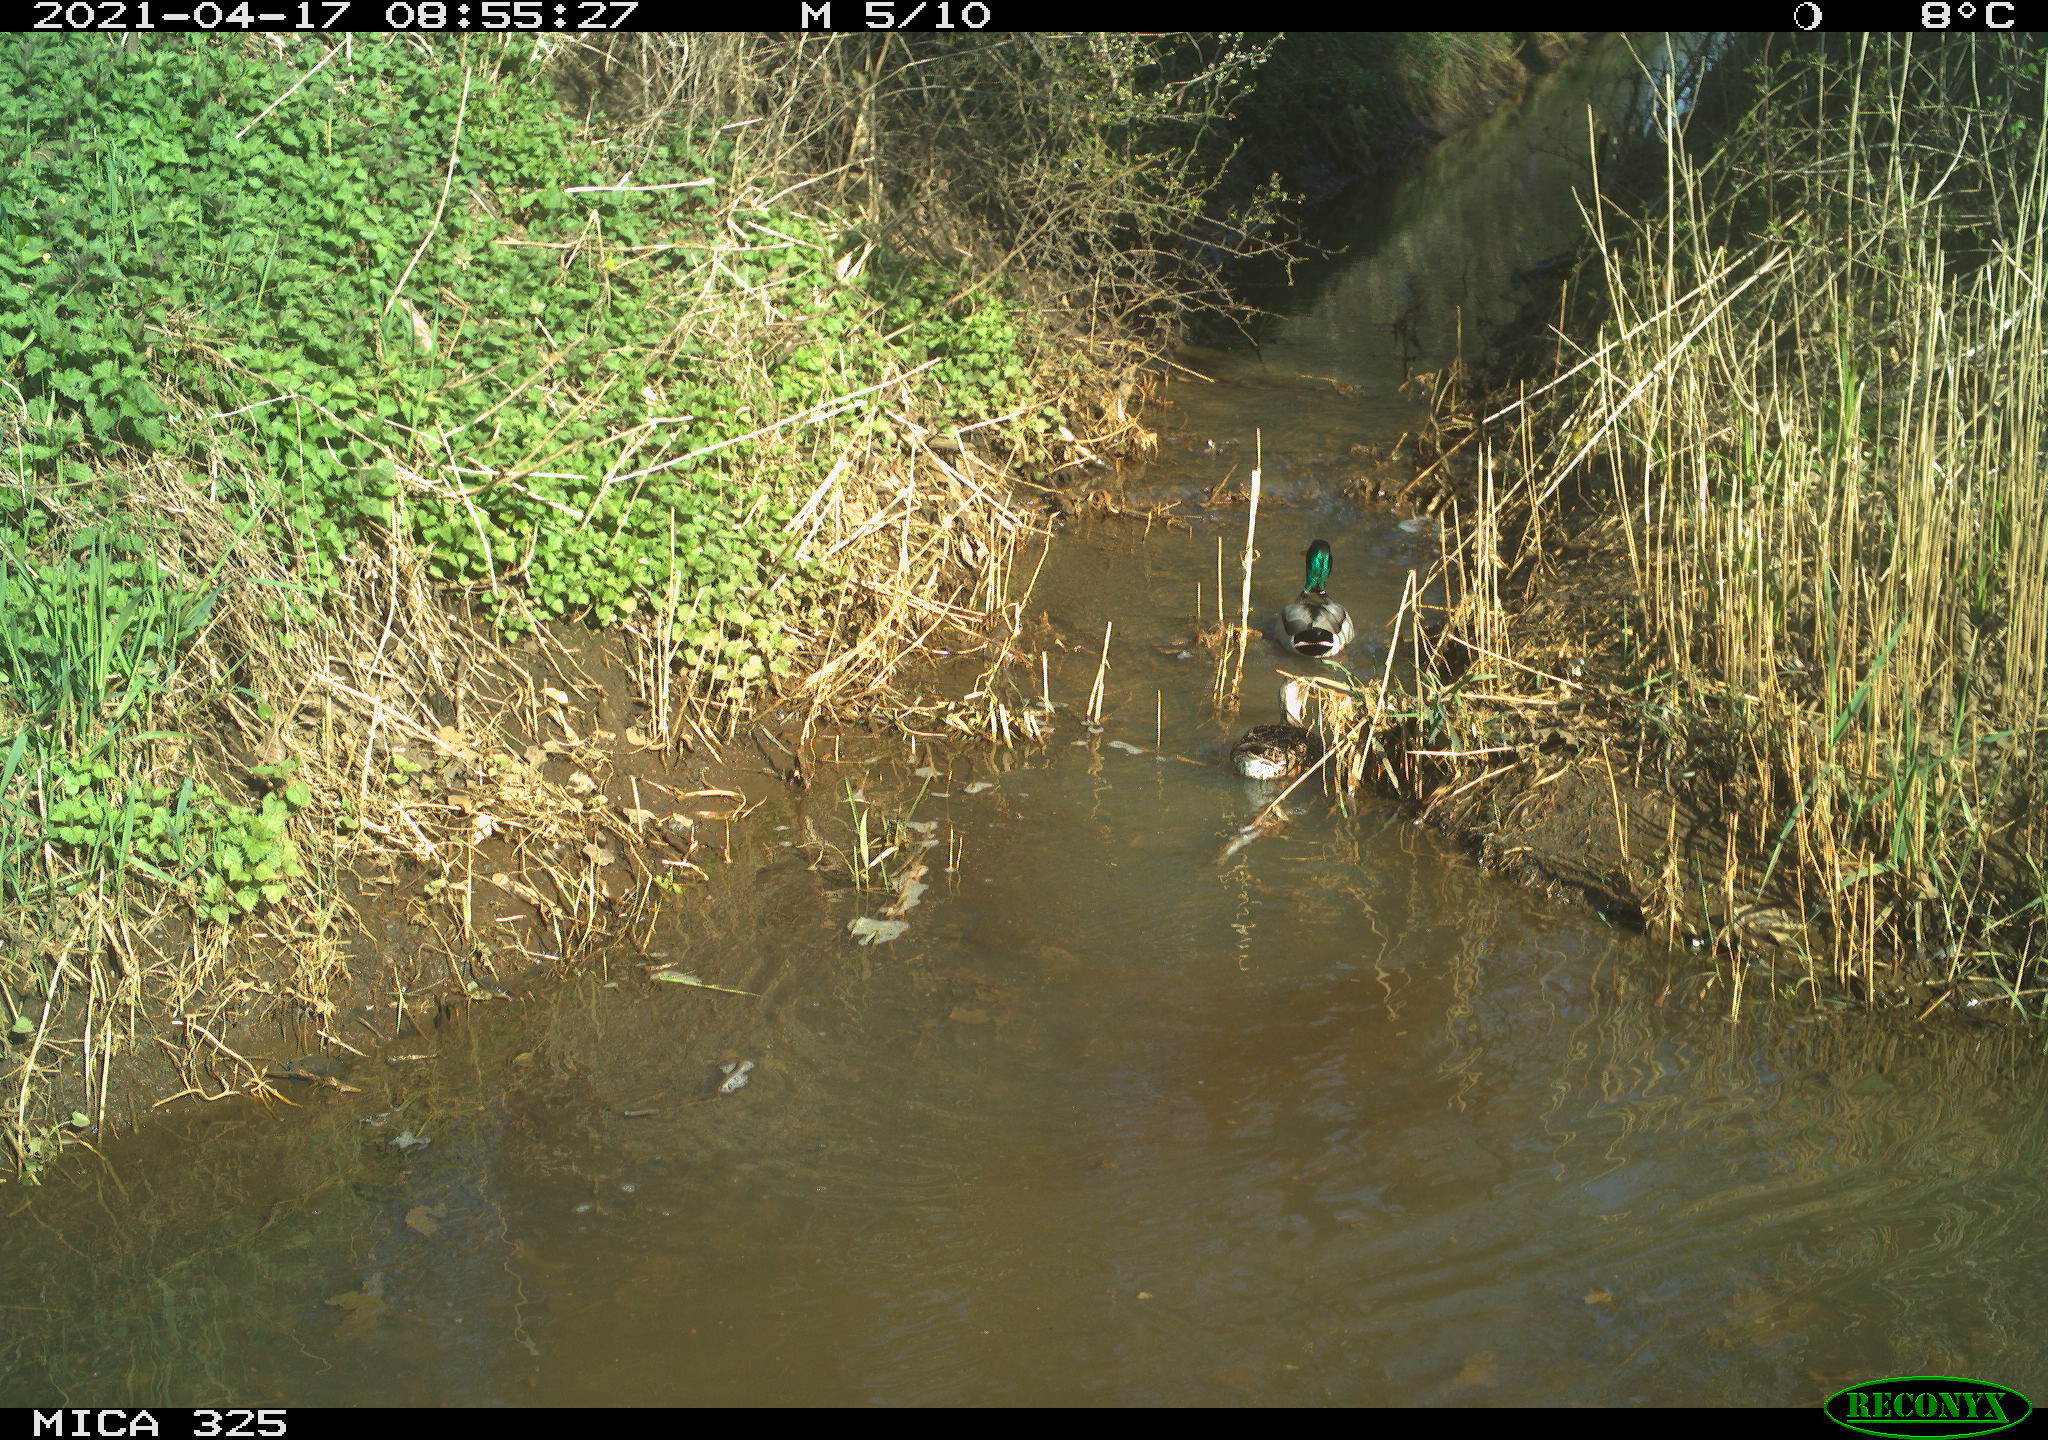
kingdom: Animalia
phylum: Chordata
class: Aves
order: Anseriformes
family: Anatidae
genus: Anas
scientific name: Anas platyrhynchos
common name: Mallard
